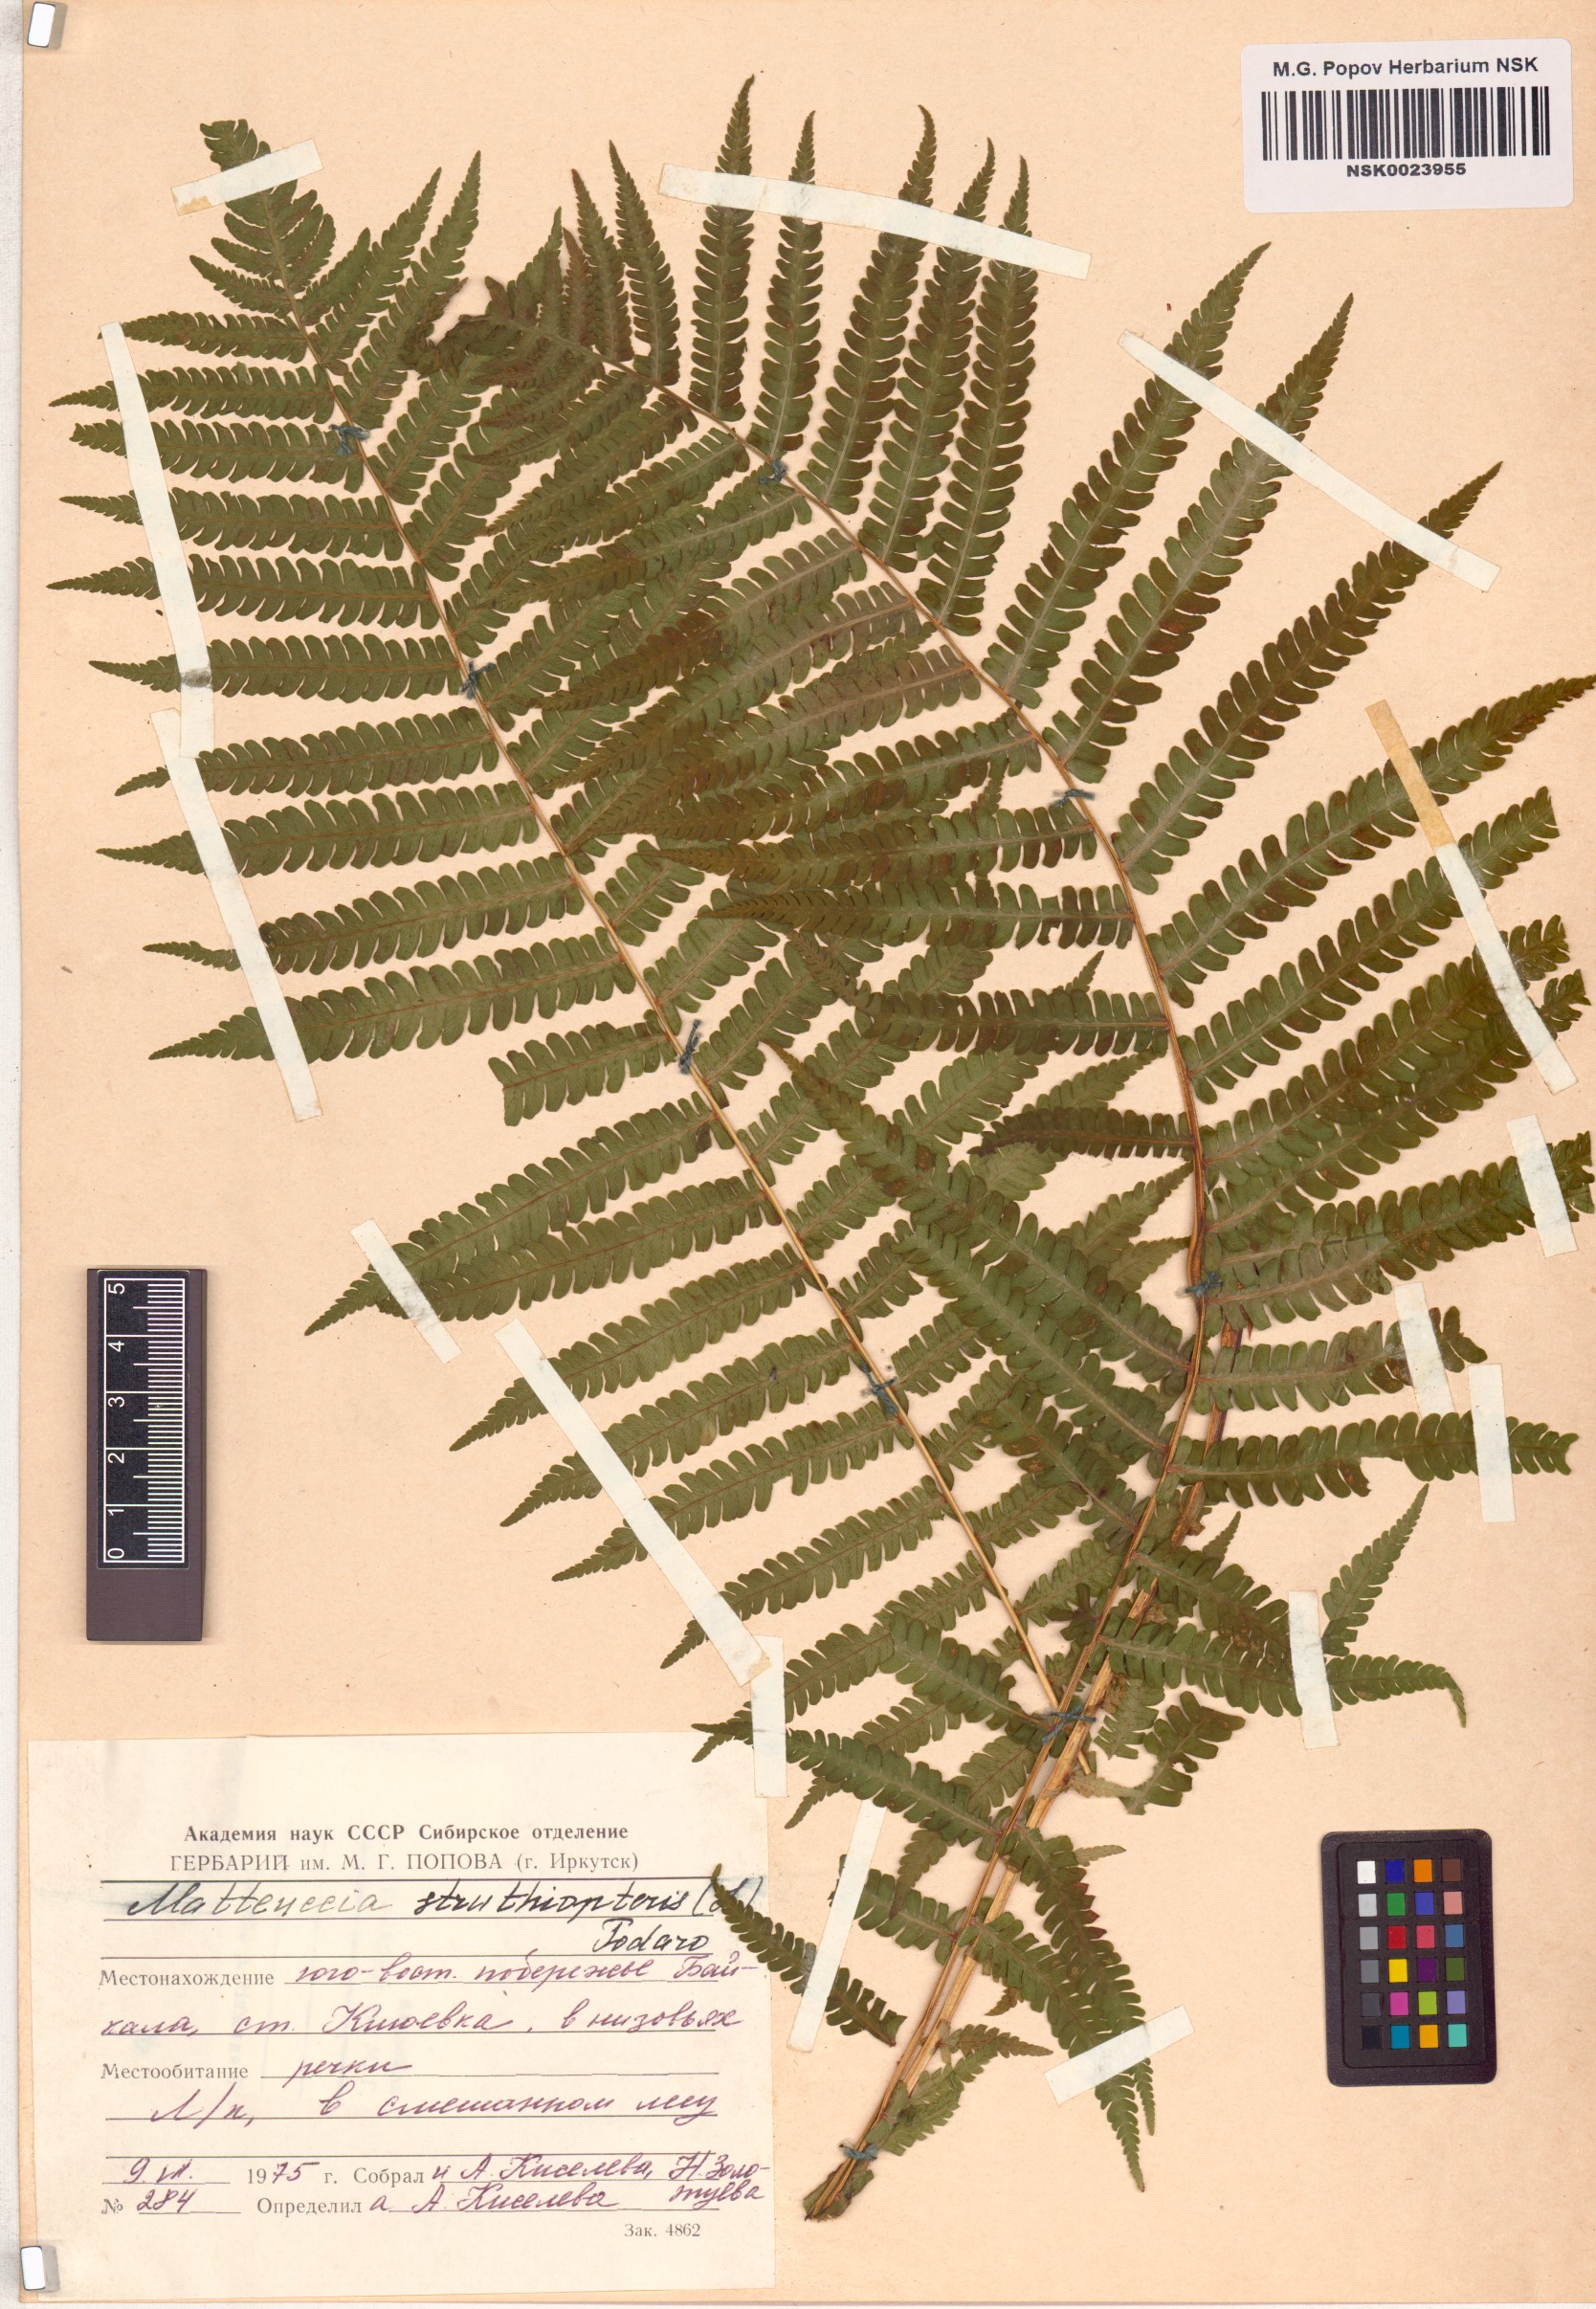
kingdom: Plantae
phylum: Tracheophyta
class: Polypodiopsida
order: Polypodiales
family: Onocleaceae
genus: Matteuccia
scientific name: Matteuccia struthiopteris
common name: Ostrich fern
